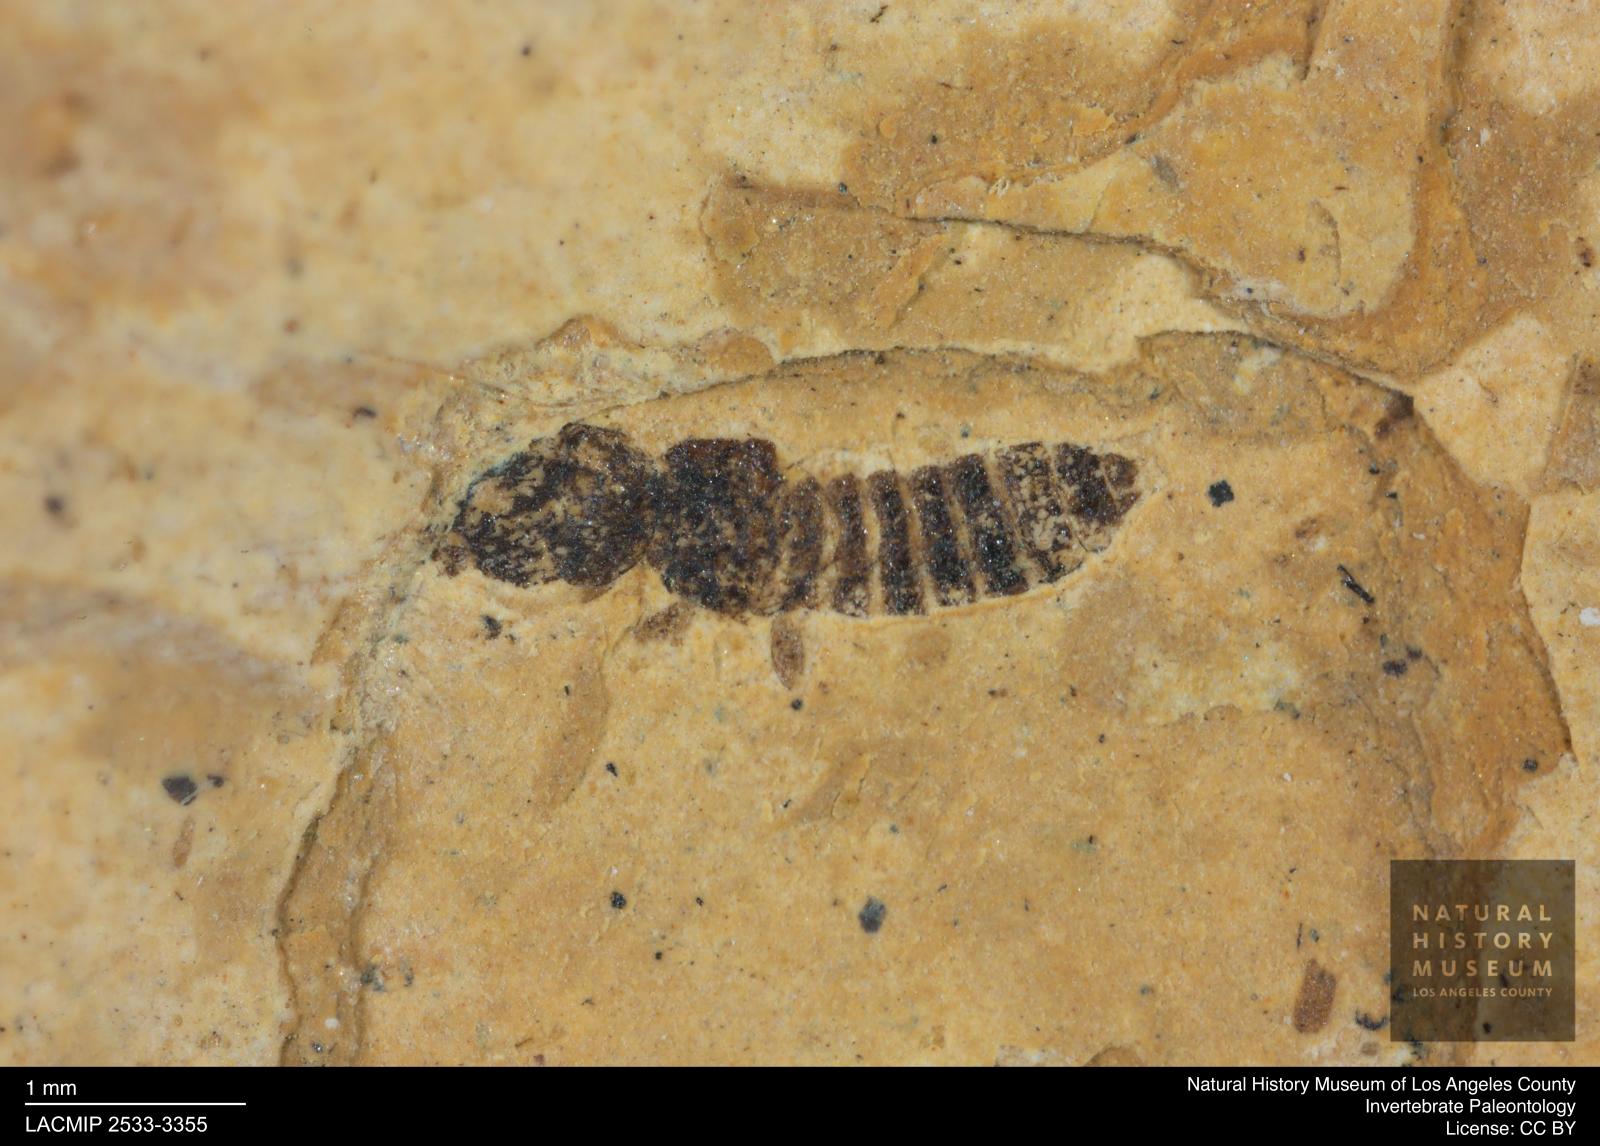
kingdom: Animalia
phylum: Arthropoda
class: Insecta
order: Coleoptera
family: Staphylinidae
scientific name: Staphylinidae
